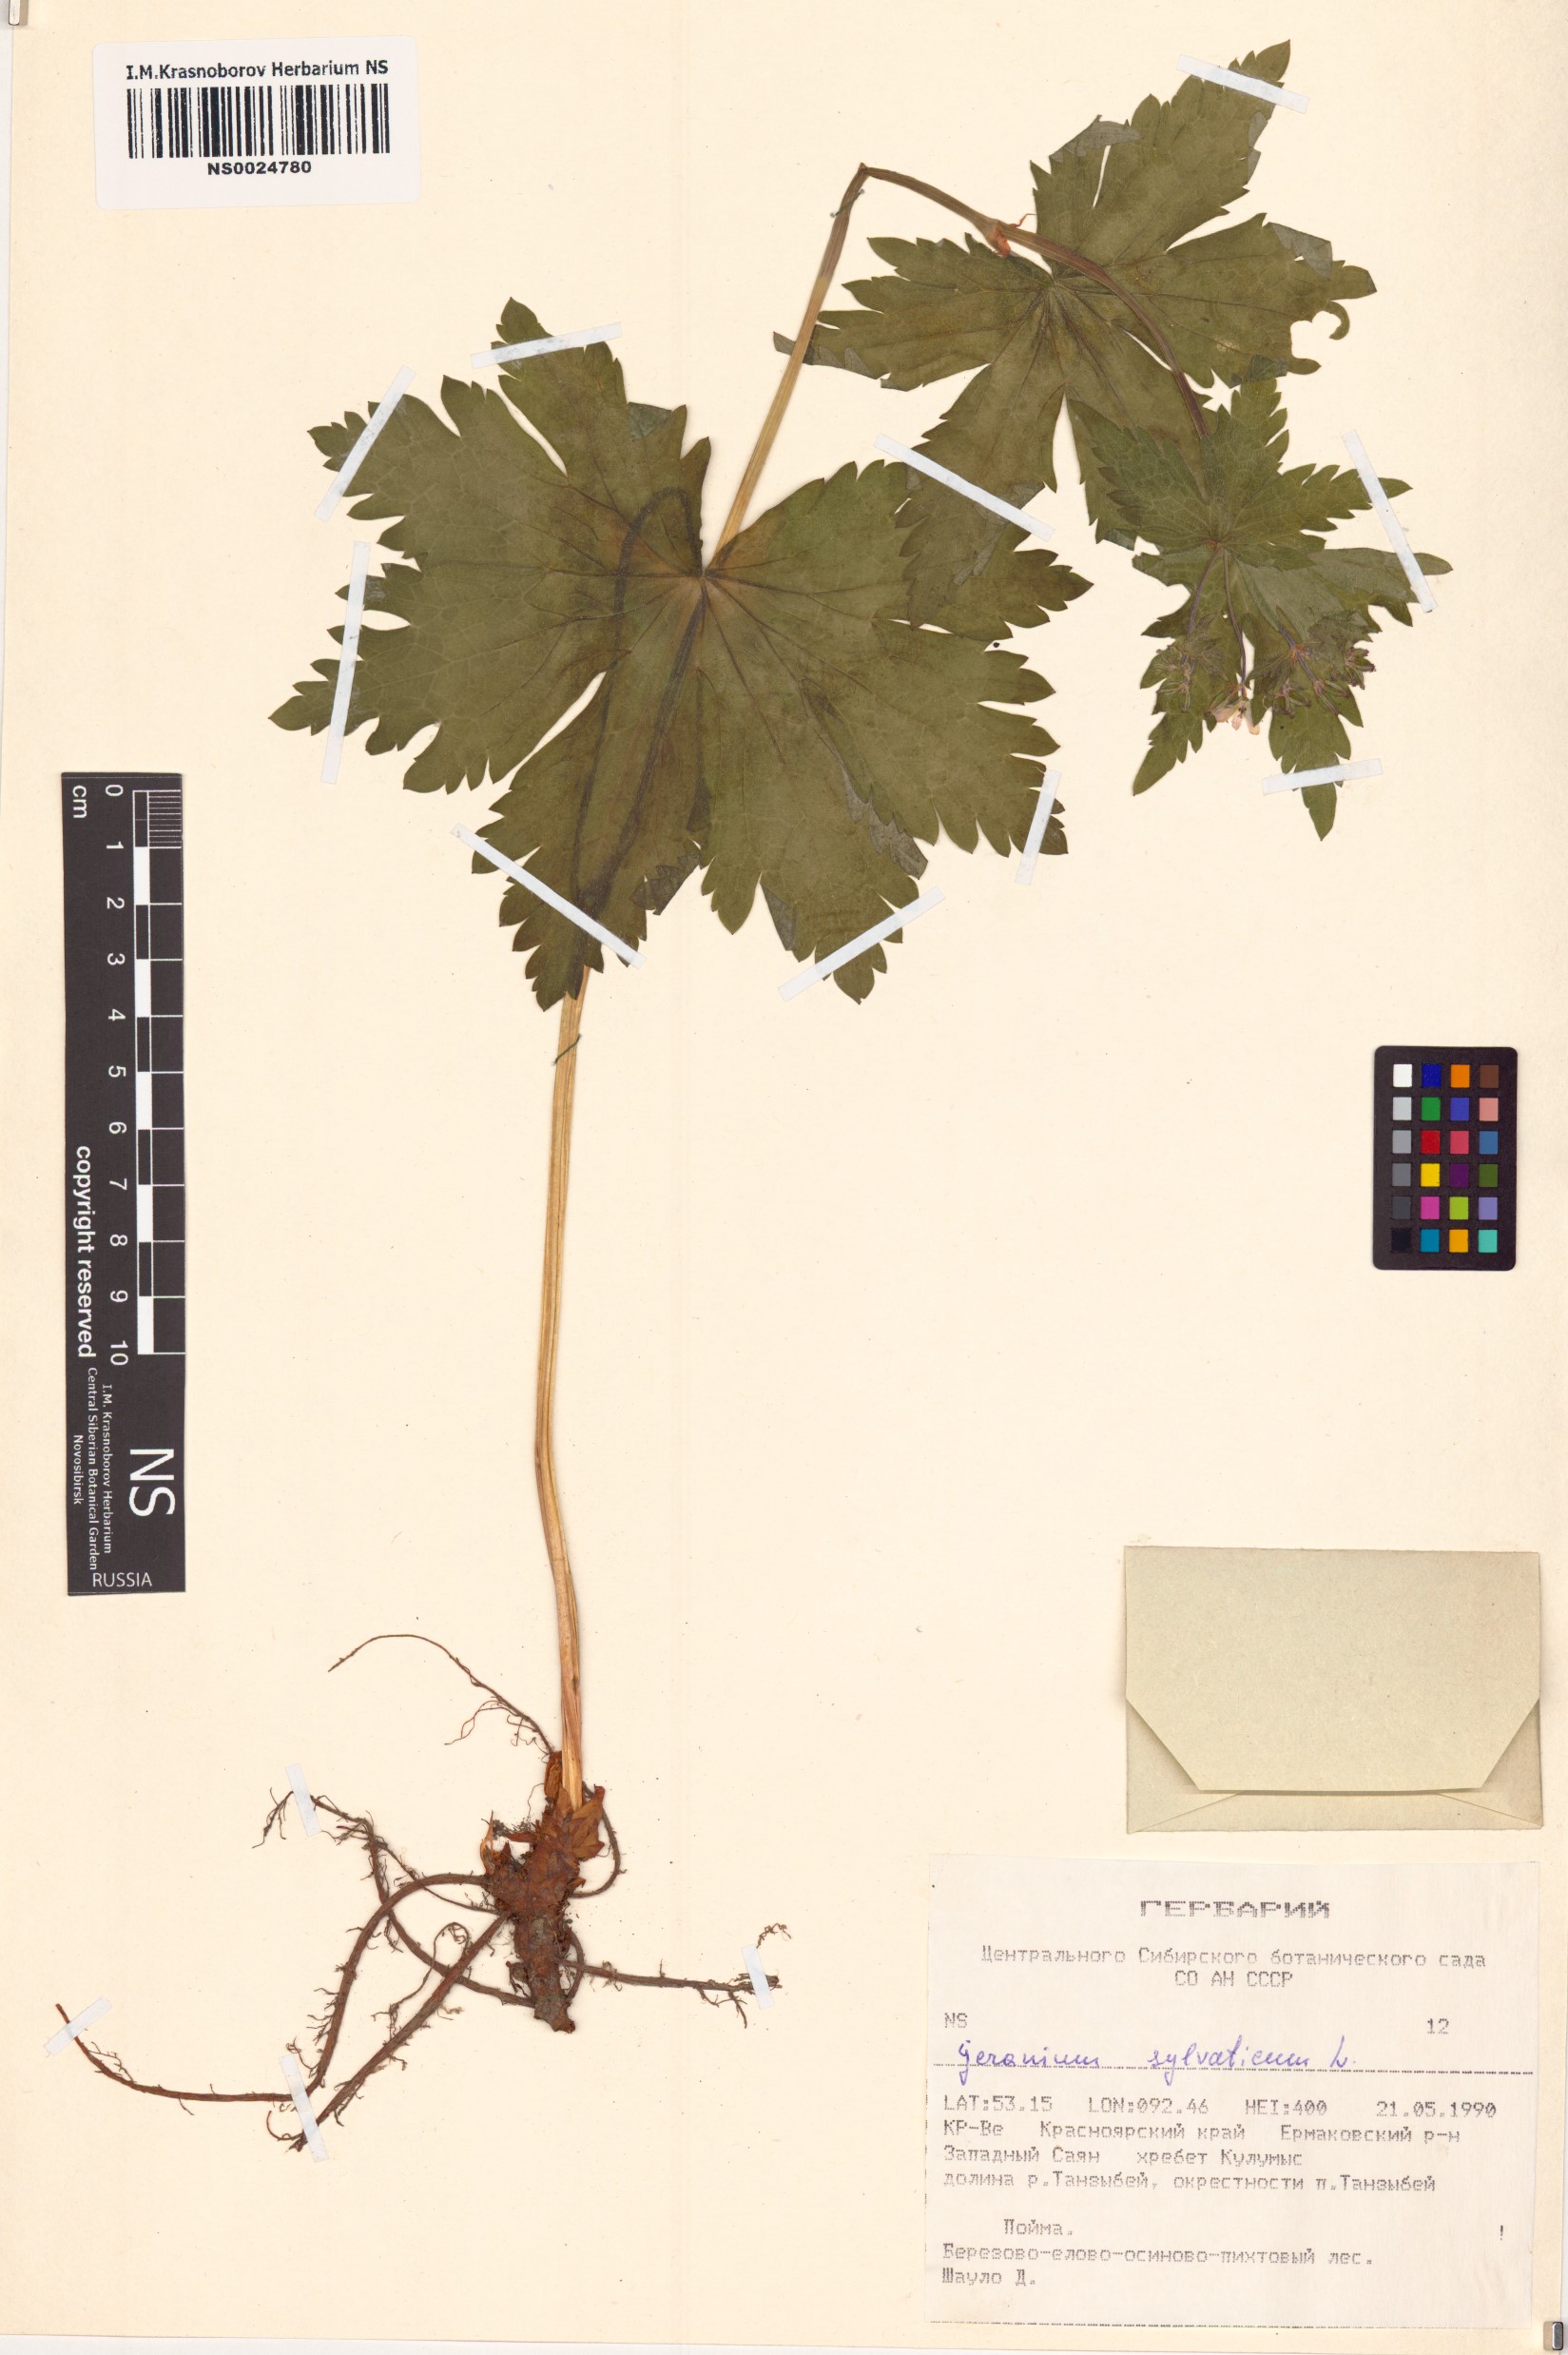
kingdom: Plantae
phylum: Tracheophyta
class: Magnoliopsida
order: Geraniales
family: Geraniaceae
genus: Geranium
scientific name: Geranium sylvaticum
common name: Wood crane's-bill
